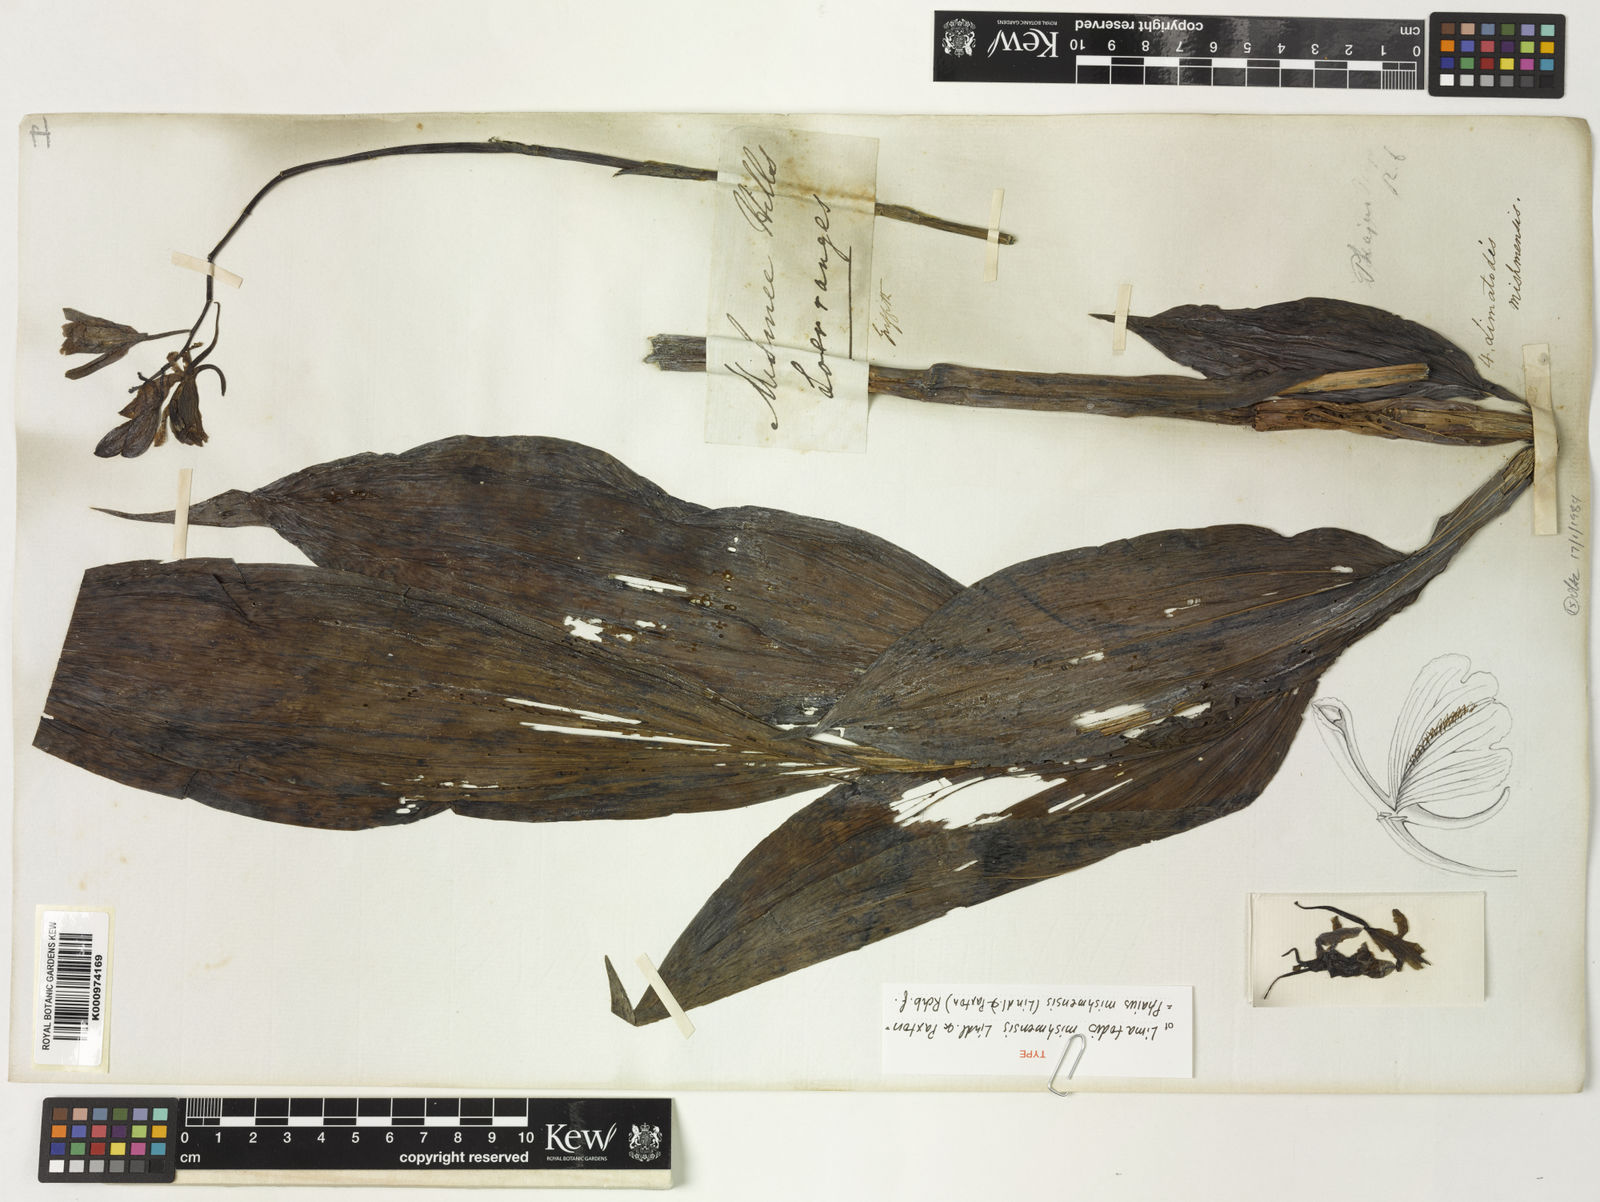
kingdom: Plantae
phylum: Tracheophyta
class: Liliopsida
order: Asparagales
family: Orchidaceae
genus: Calanthe
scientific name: Calanthe mishmensis
